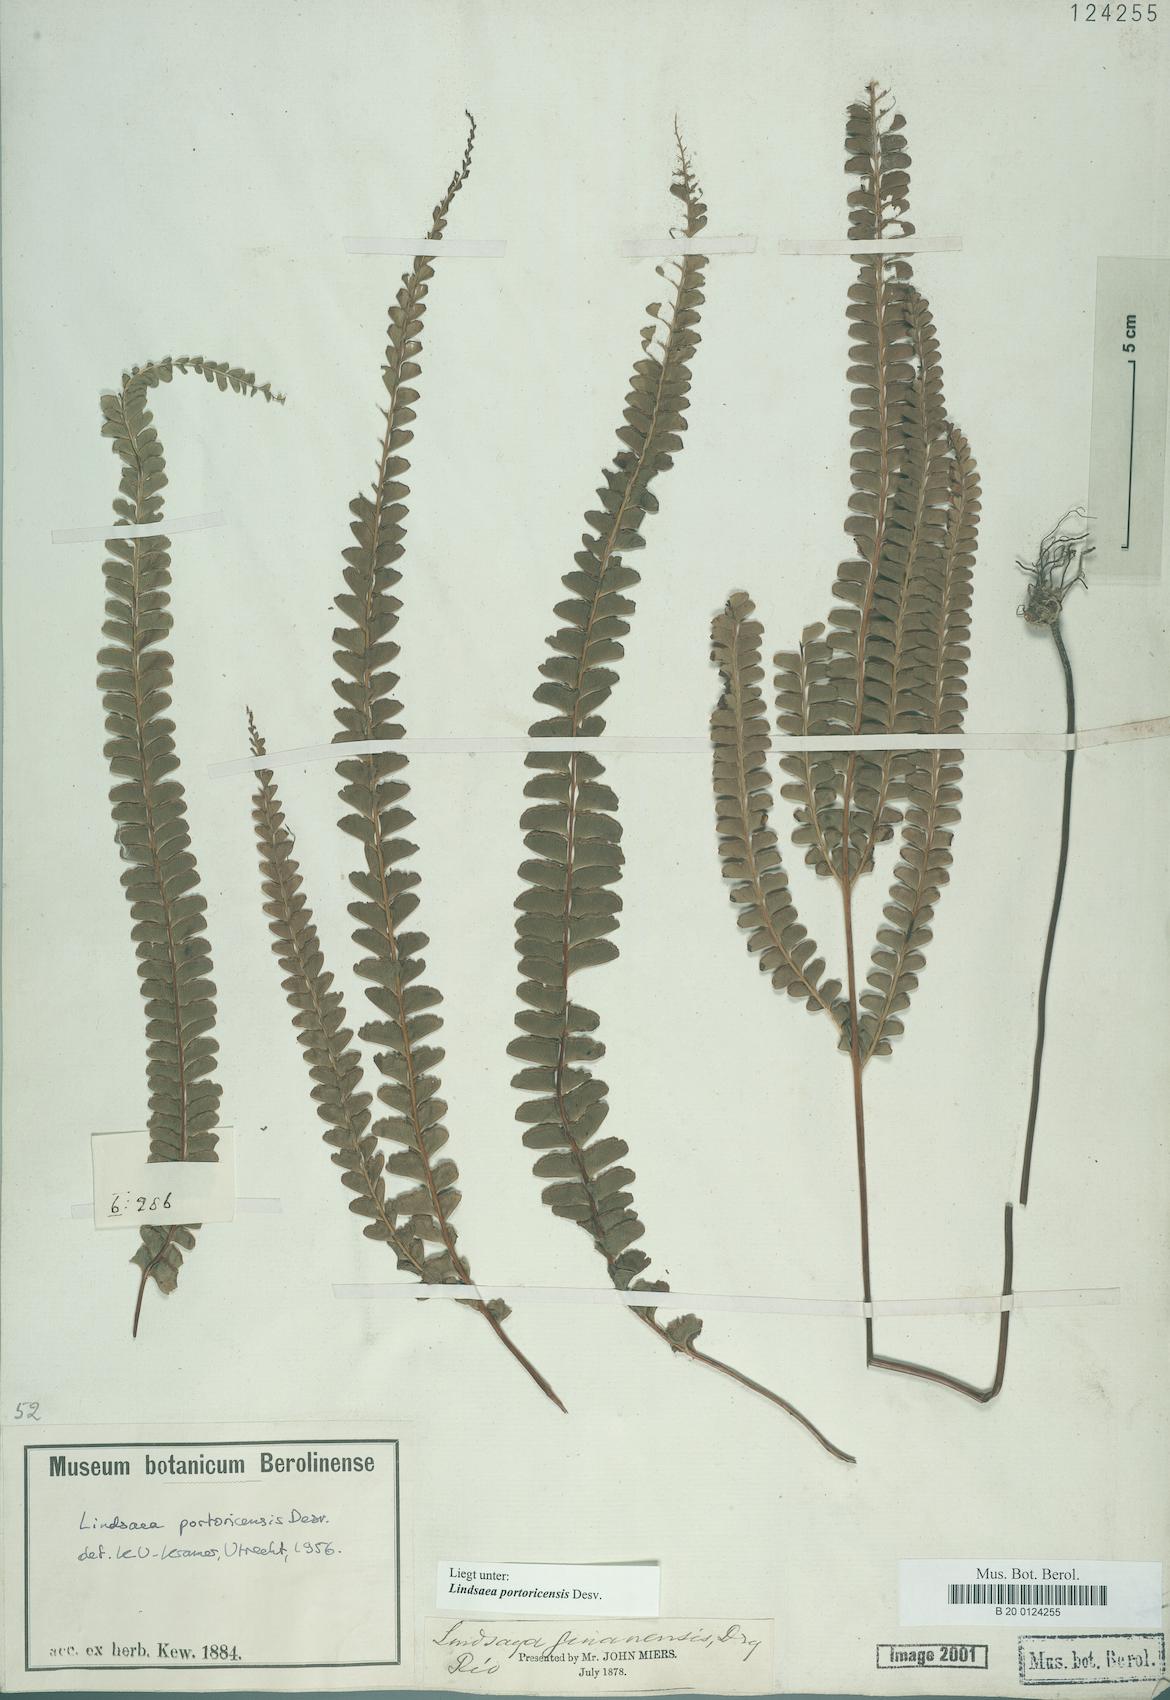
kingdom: Plantae
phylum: Tracheophyta
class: Polypodiopsida
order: Polypodiales
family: Lindsaeaceae
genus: Lindsaea
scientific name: Lindsaea portoricensis
